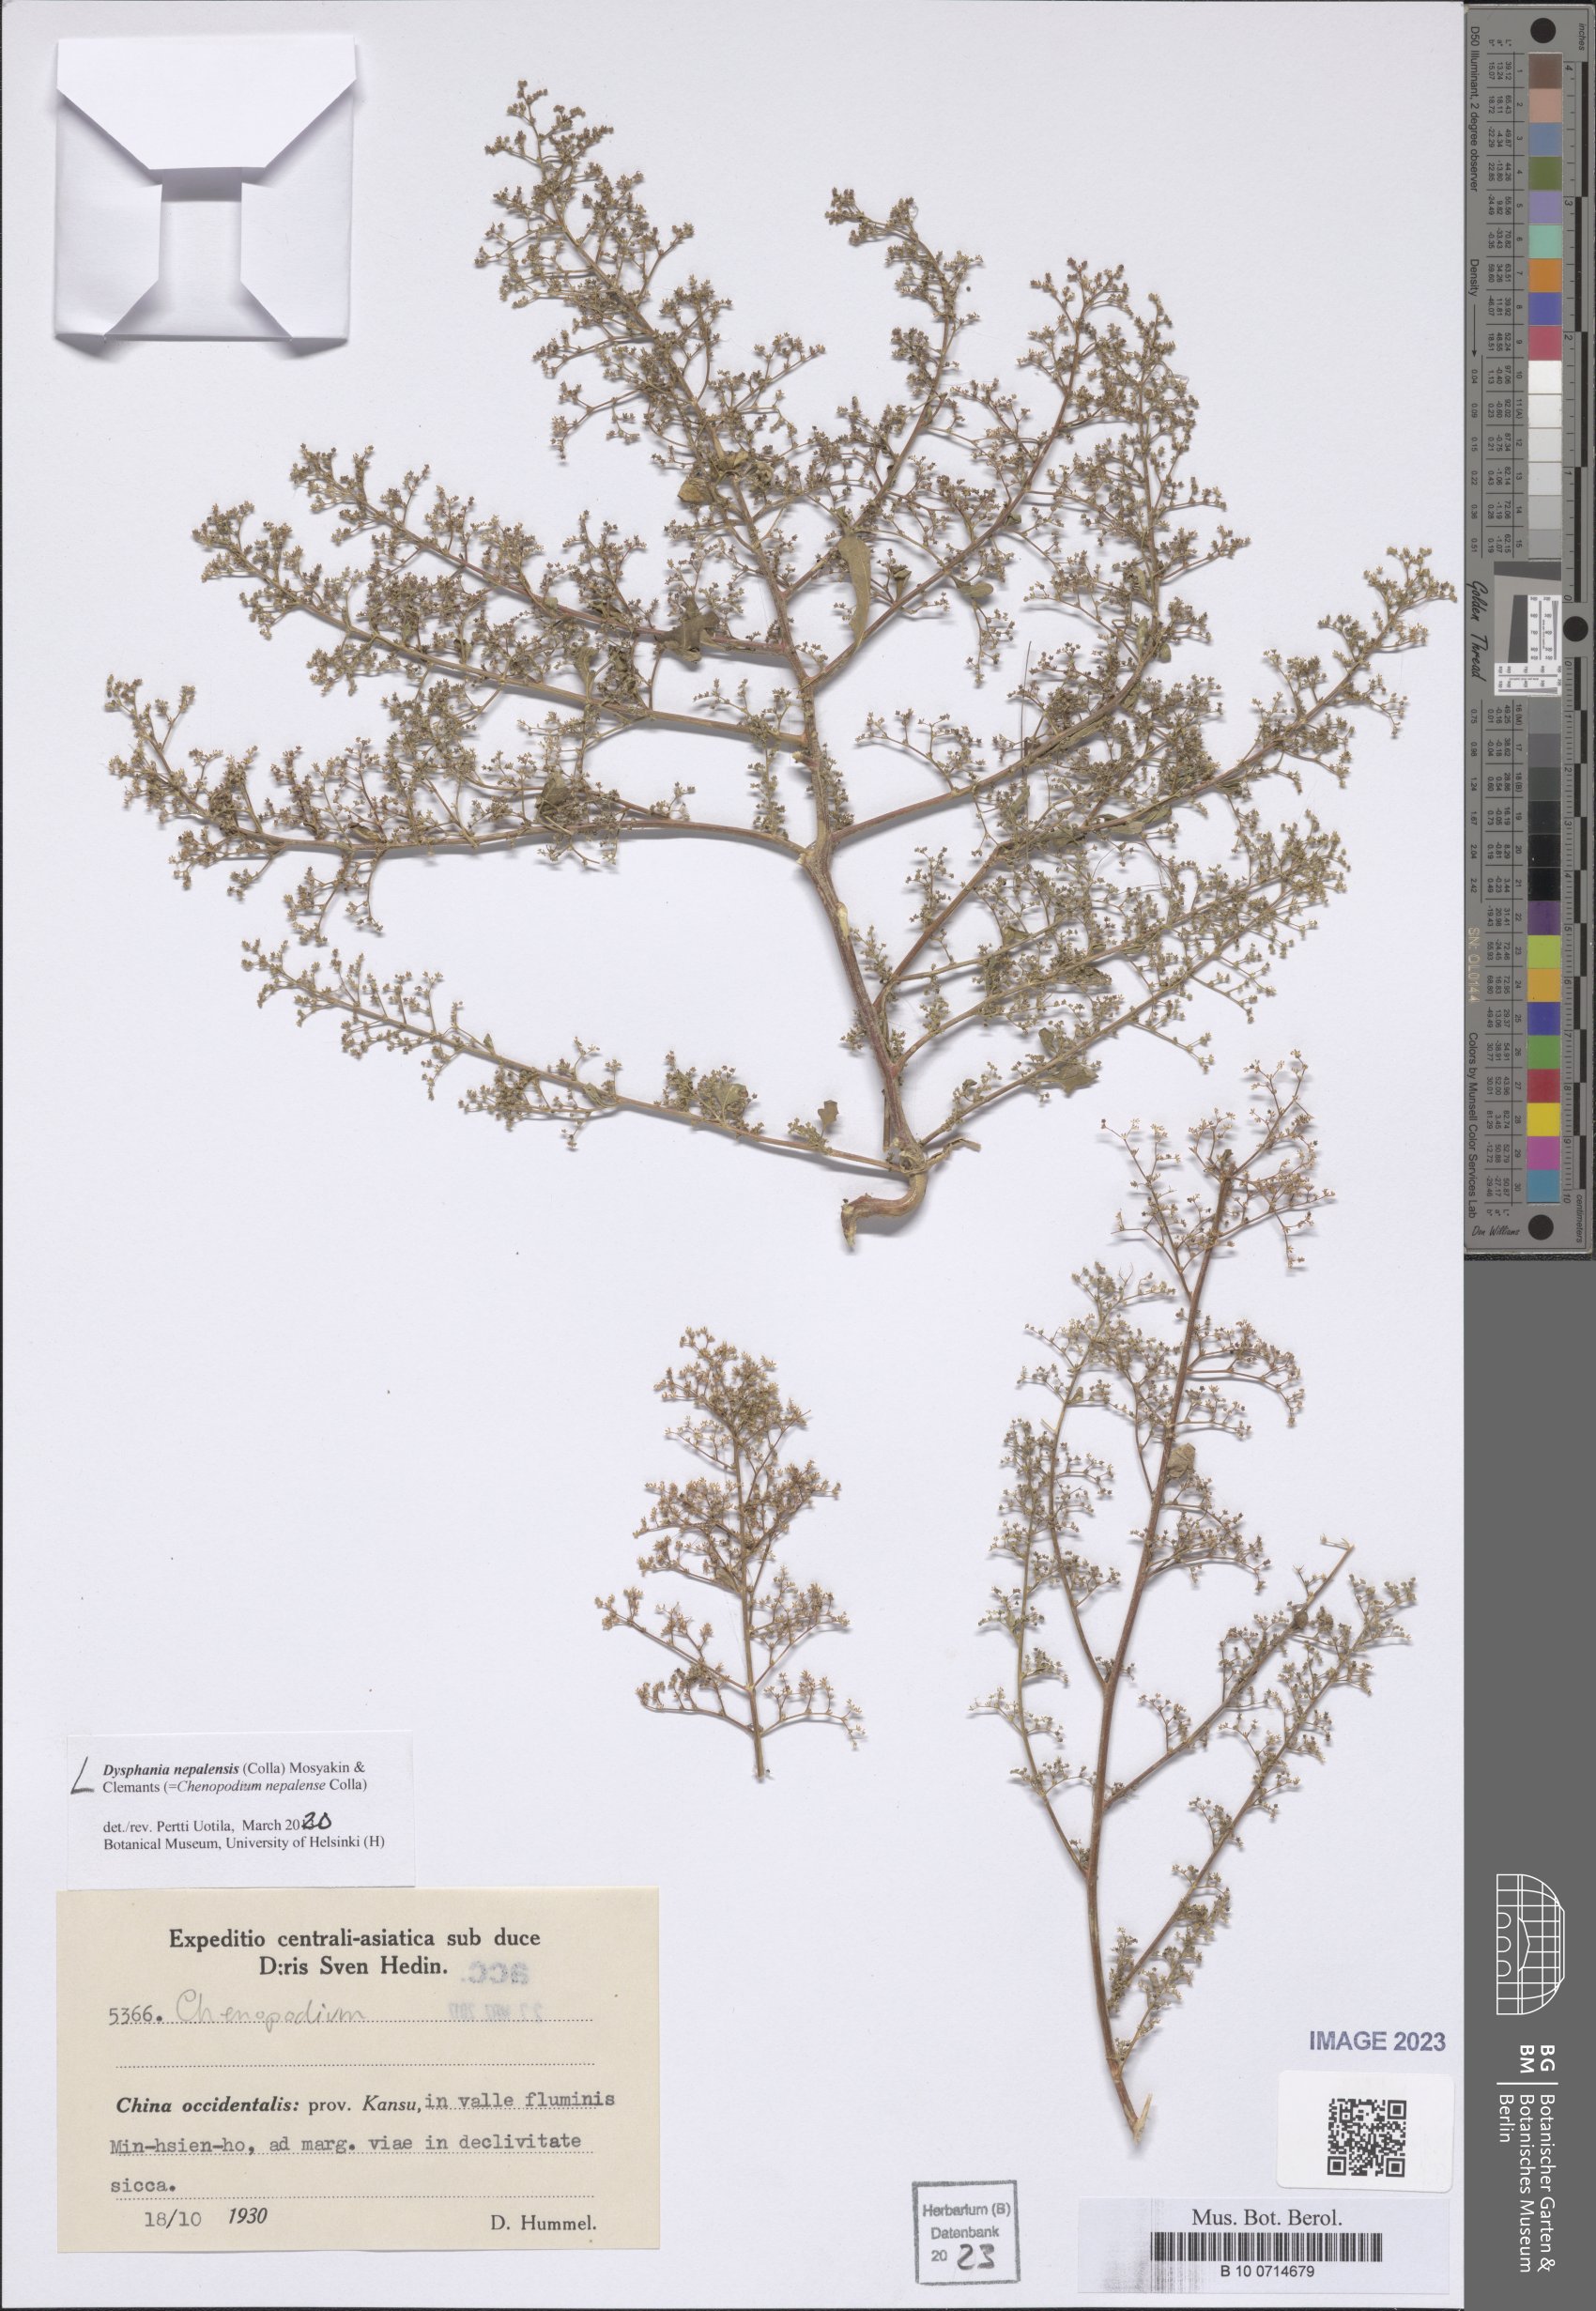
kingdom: Plantae
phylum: Tracheophyta
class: Magnoliopsida
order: Caryophyllales
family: Amaranthaceae
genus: Dysphania
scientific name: Dysphania nepalensis
